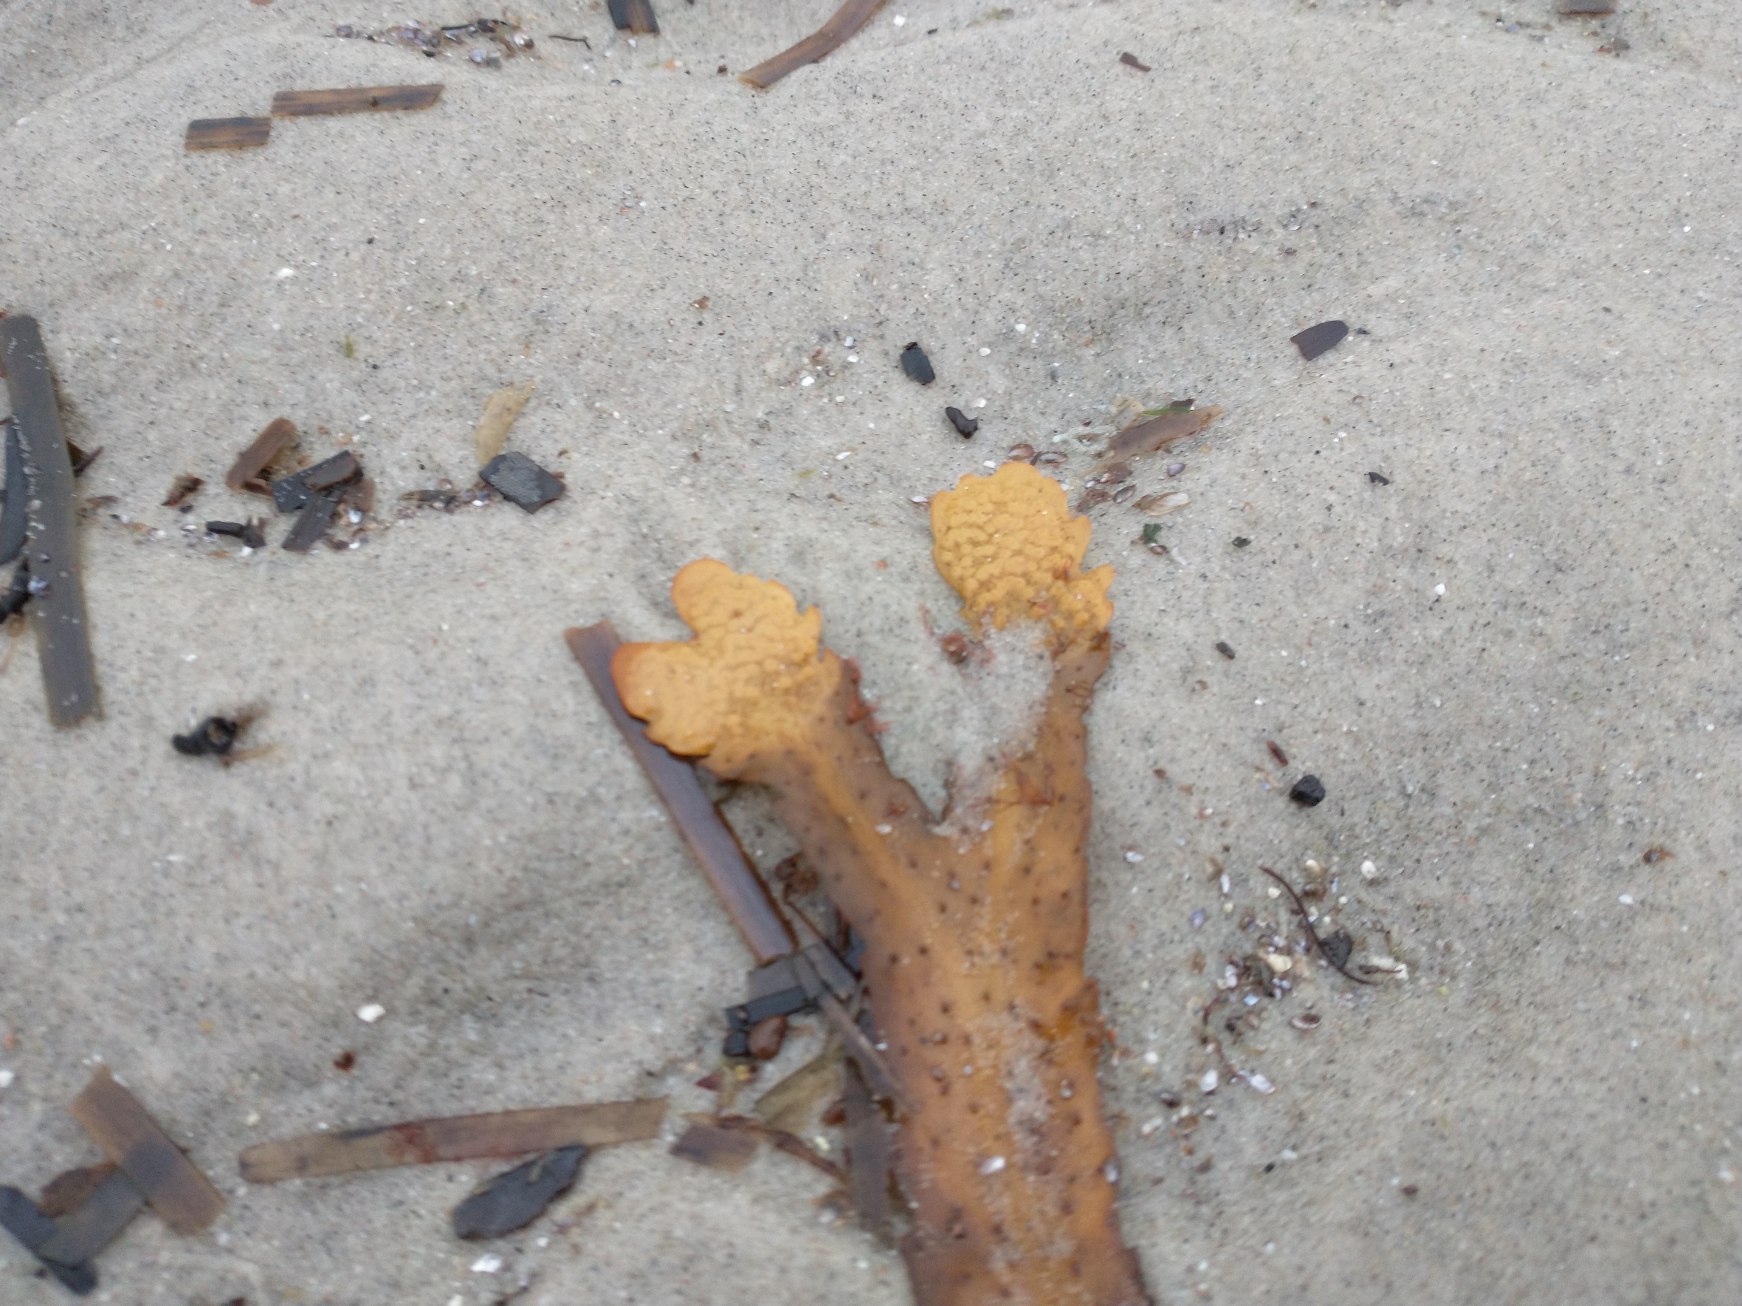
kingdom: Chromista
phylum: Ochrophyta
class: Phaeophyceae
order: Fucales
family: Fucaceae
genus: Fucus
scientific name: Fucus serratus
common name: Savtang
